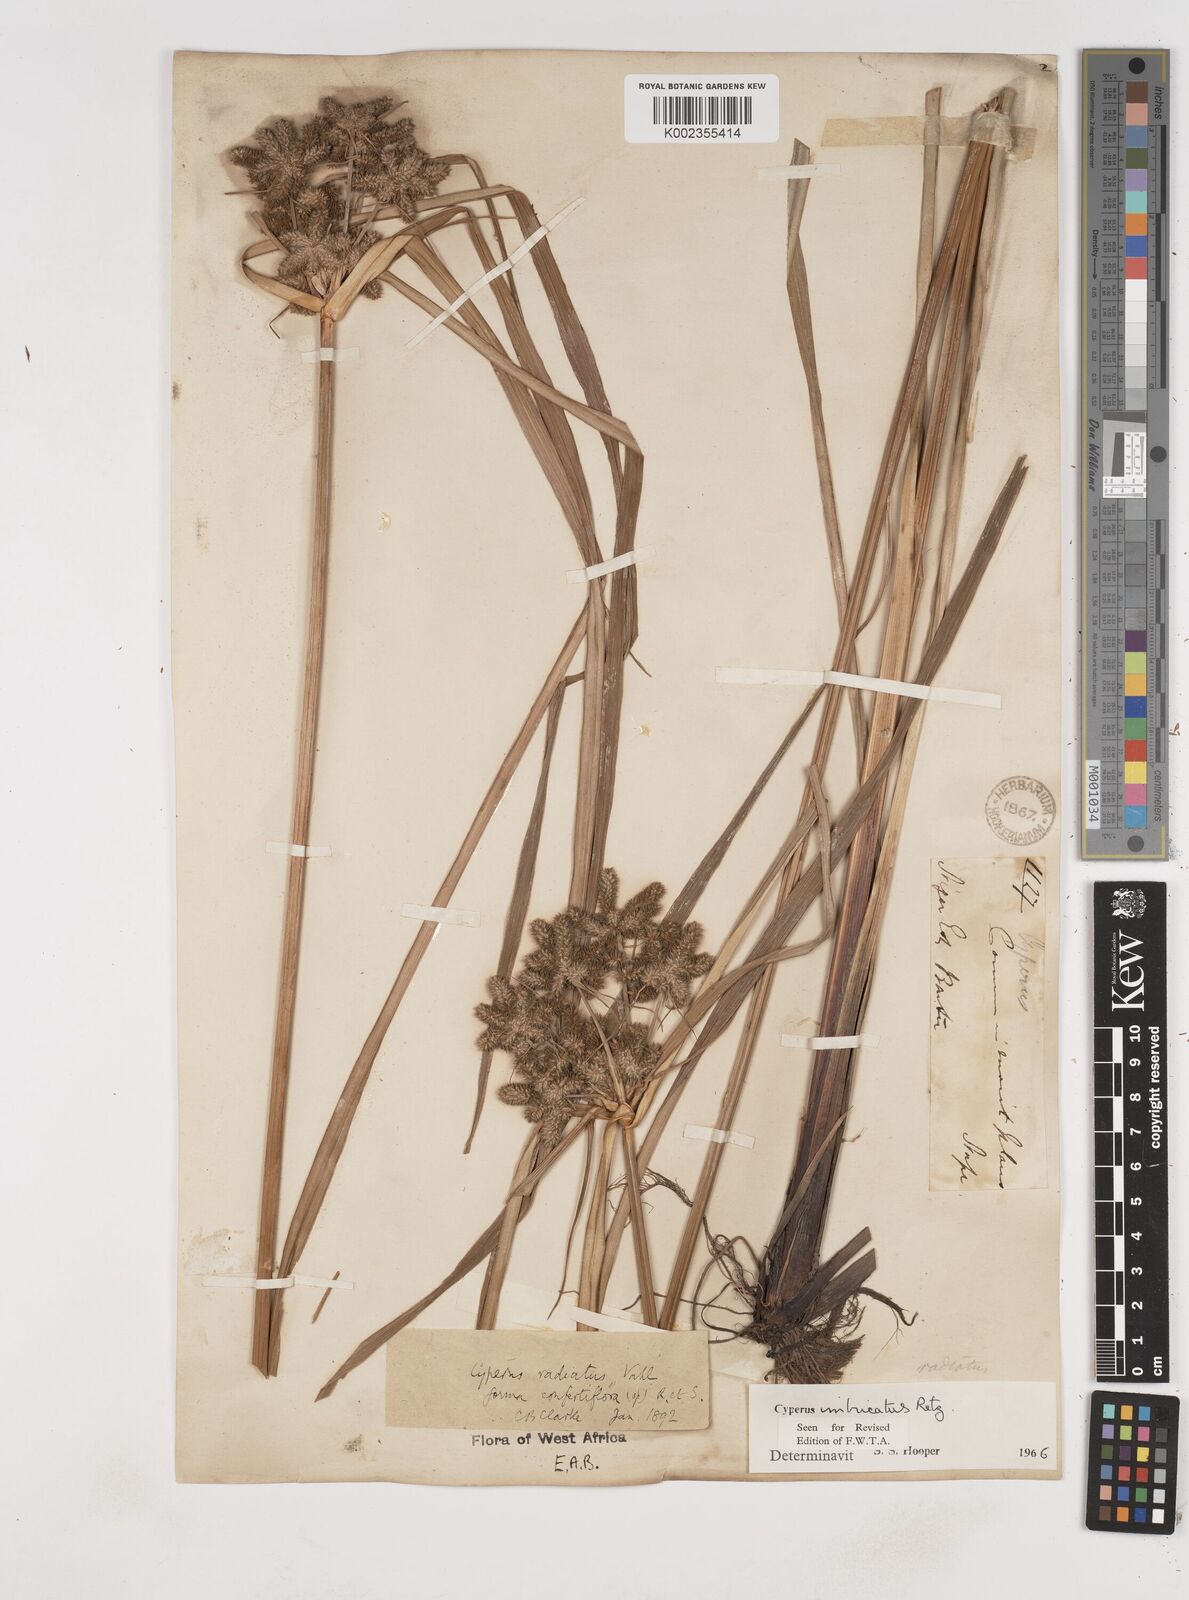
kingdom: Plantae
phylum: Tracheophyta
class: Liliopsida
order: Poales
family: Cyperaceae
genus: Cyperus
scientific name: Cyperus imbricatus
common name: Shingle flatsedge
